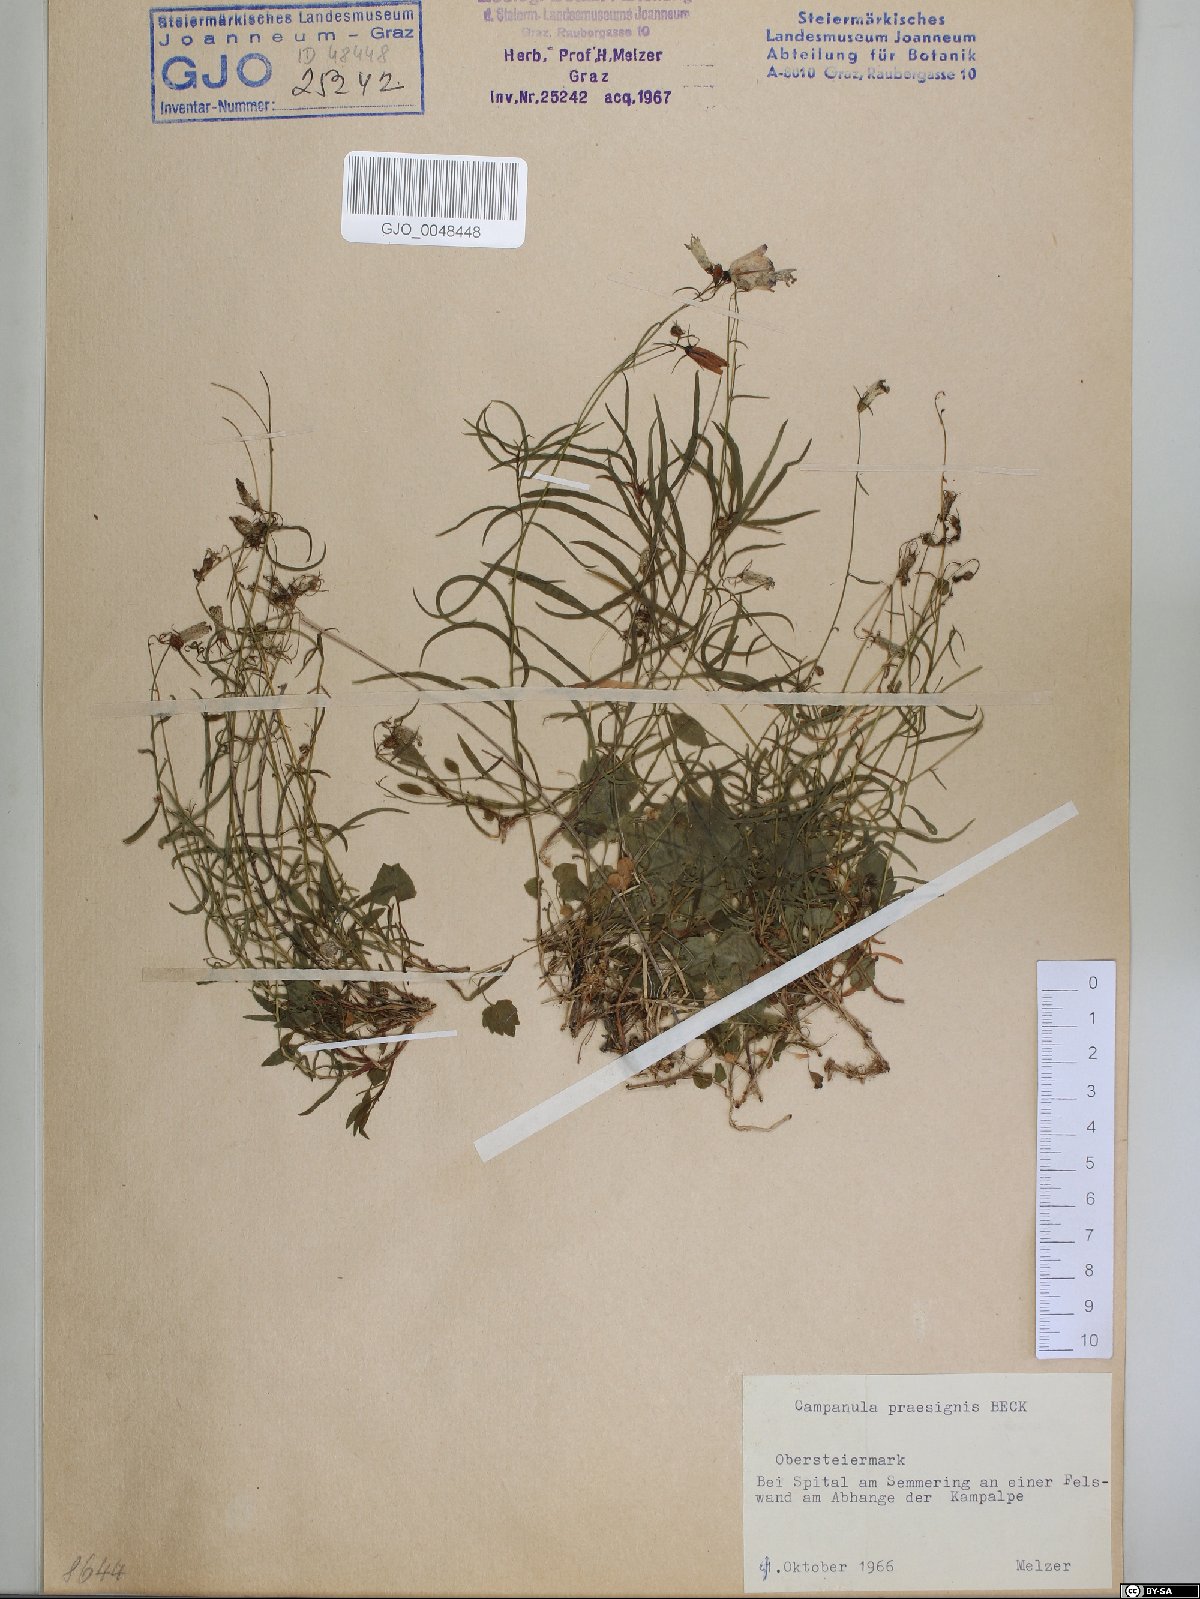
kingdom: Plantae
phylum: Tracheophyta
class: Magnoliopsida
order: Asterales
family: Campanulaceae
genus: Campanula
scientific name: Campanula praesignis
